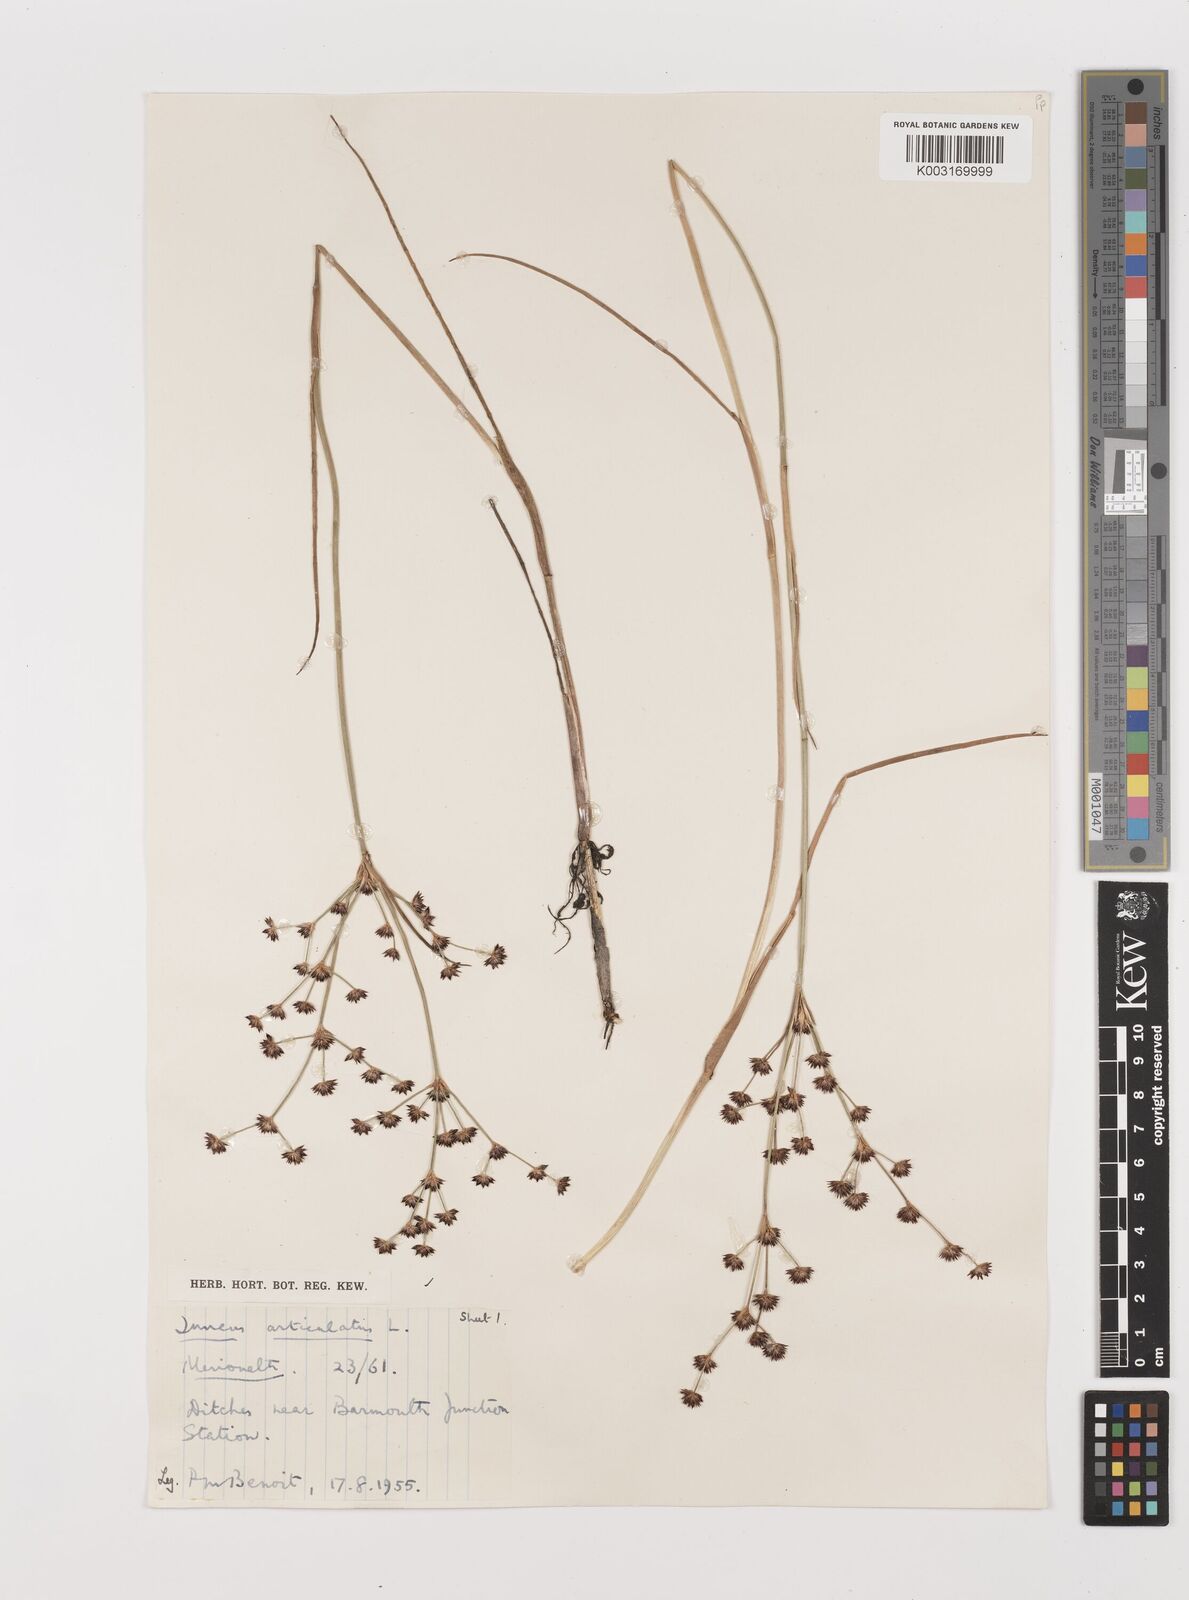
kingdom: Plantae
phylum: Tracheophyta
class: Liliopsida
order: Poales
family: Juncaceae
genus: Juncus
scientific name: Juncus articulatus
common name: Jointed rush
